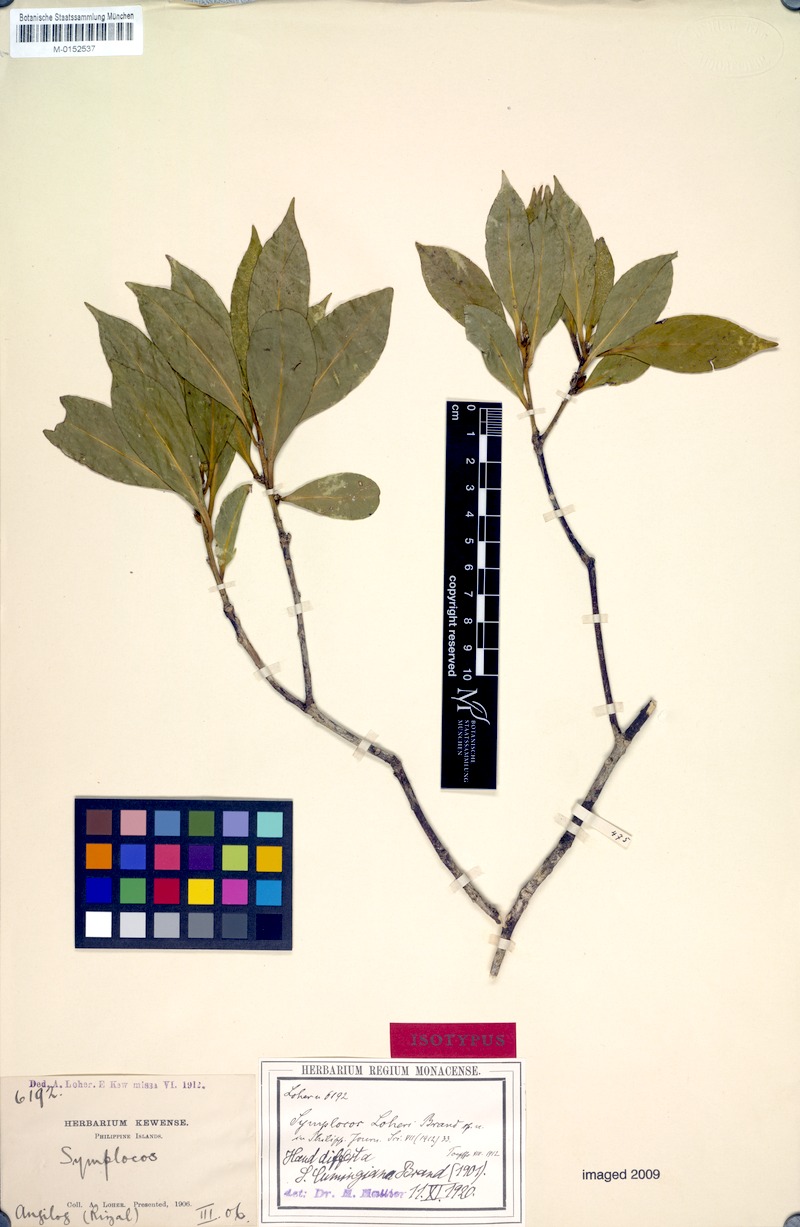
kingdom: Plantae
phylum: Tracheophyta
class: Magnoliopsida
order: Ericales
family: Symplocaceae
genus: Symplocos
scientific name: Symplocos nakaharae
